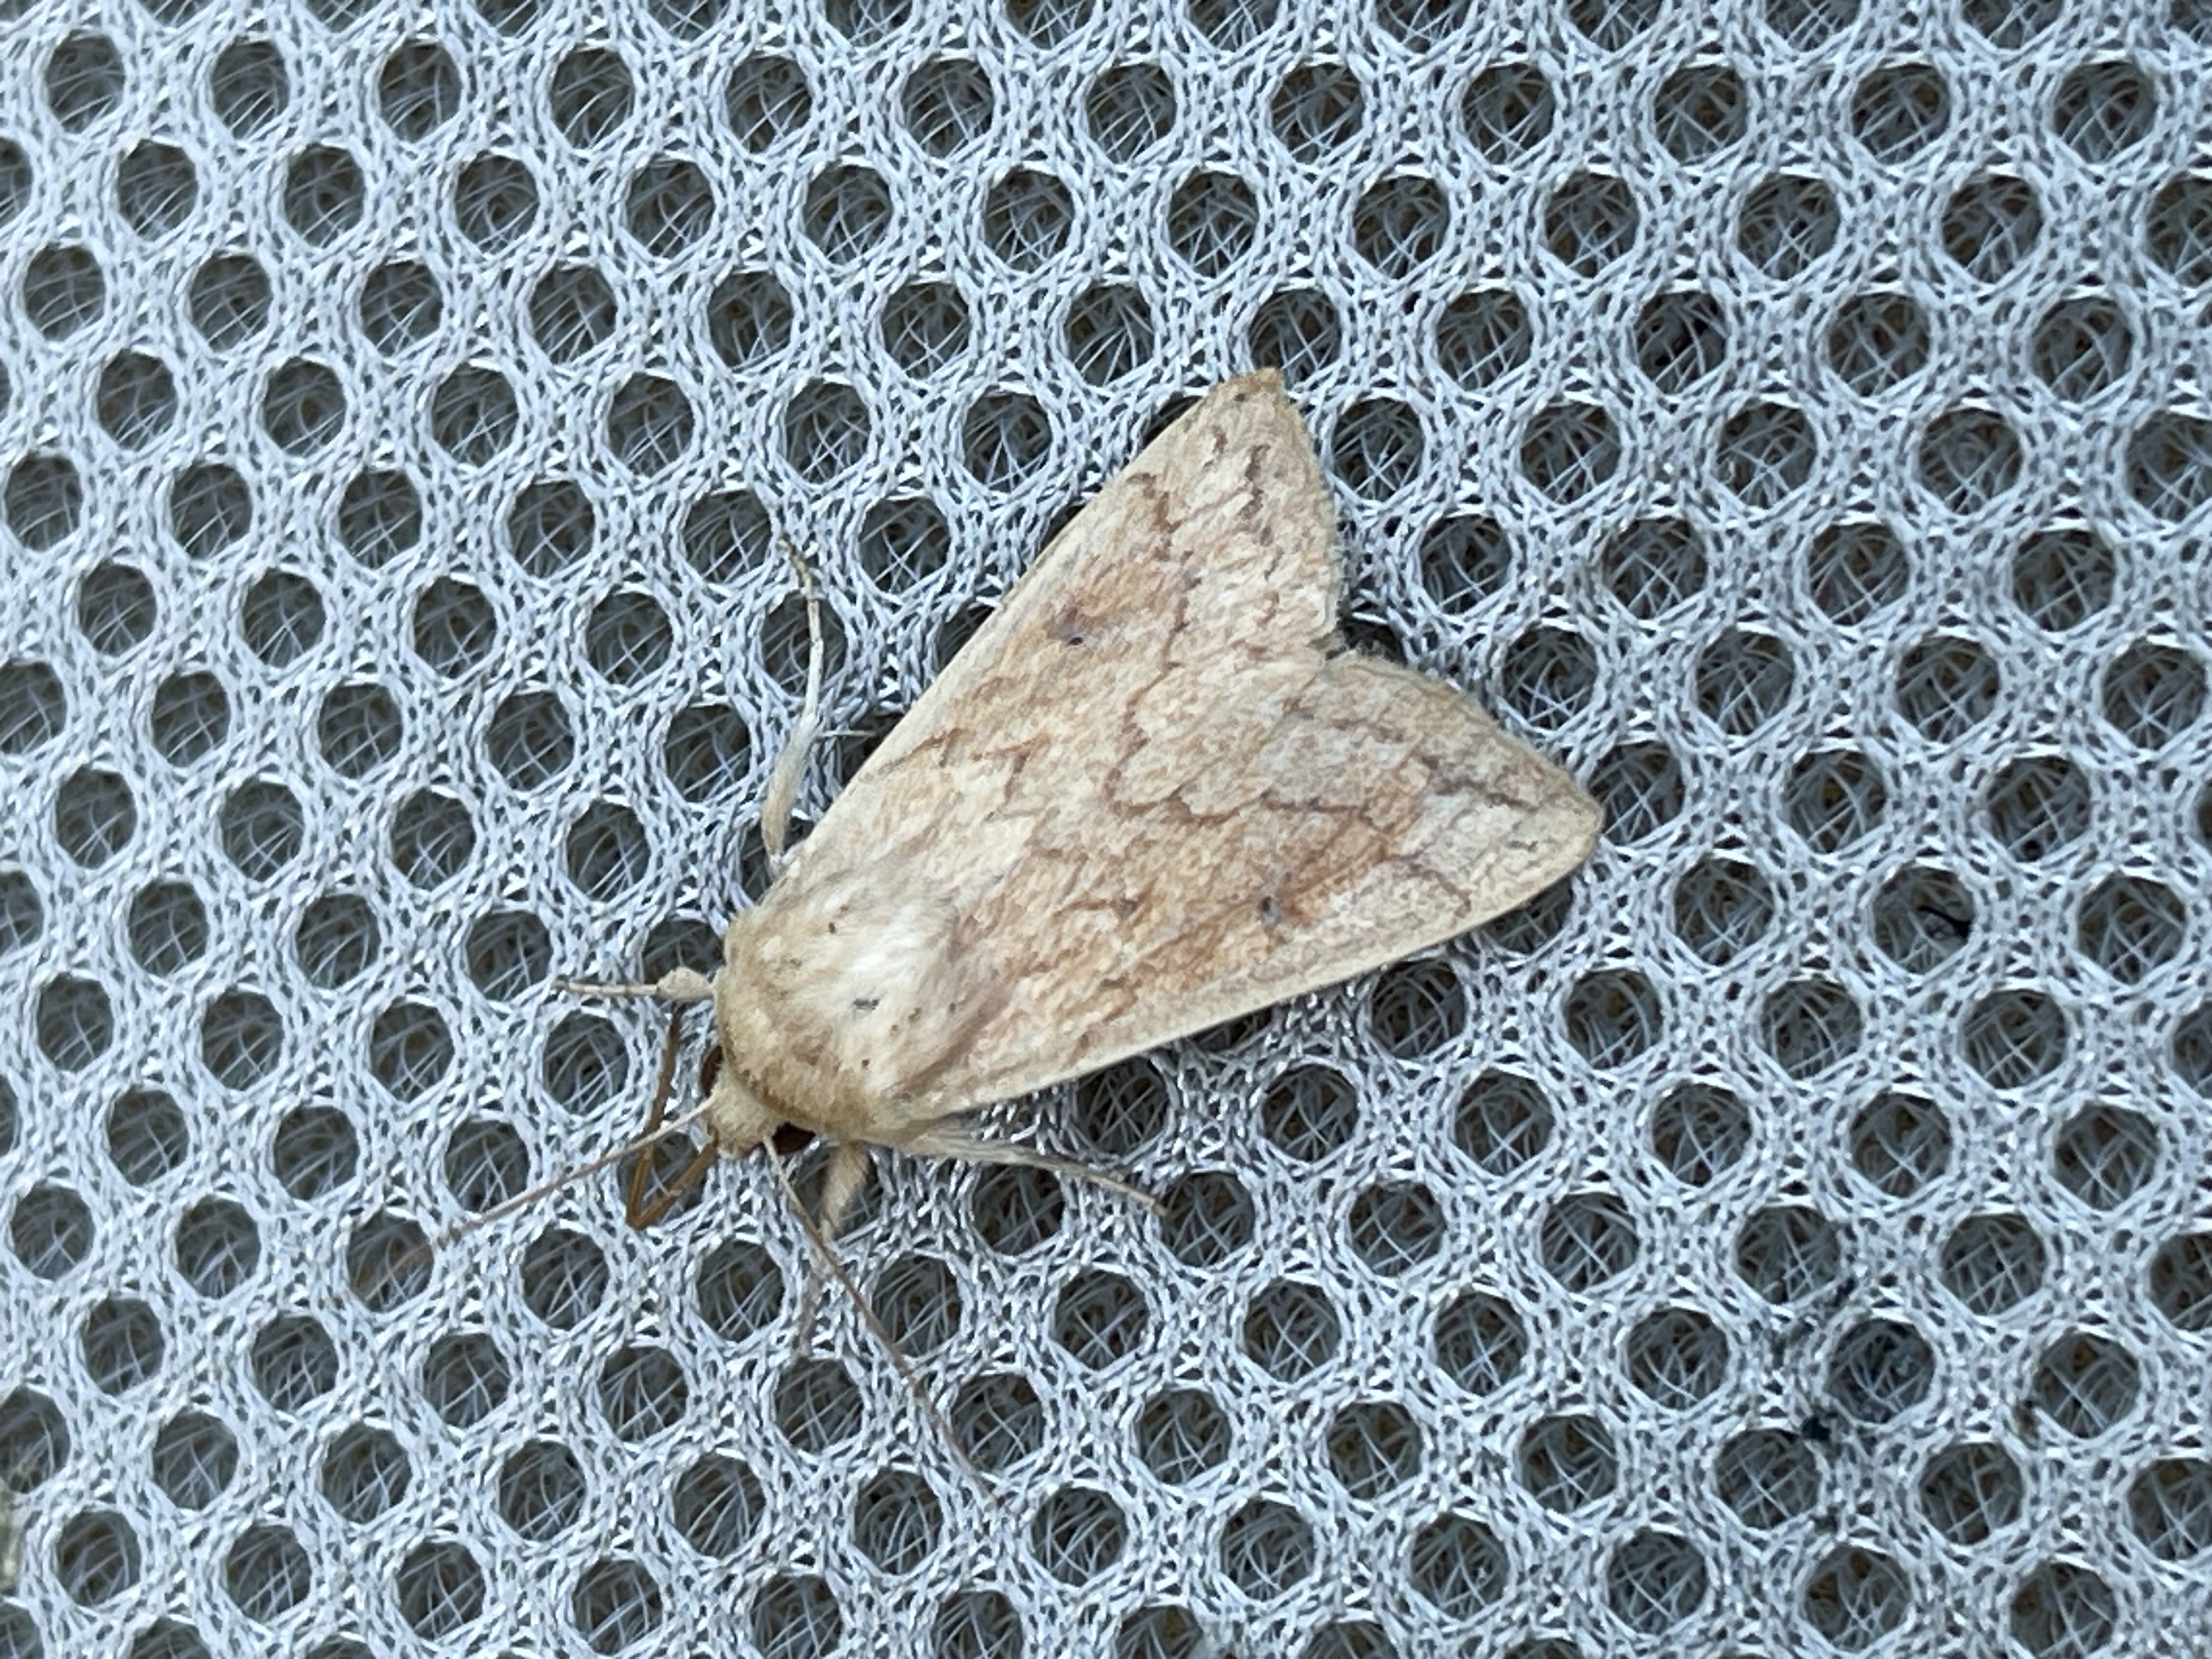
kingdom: Animalia
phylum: Arthropoda
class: Insecta
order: Lepidoptera
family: Noctuidae
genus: Mythimna
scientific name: Mythimna vitellina
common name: Takliniet græsugle
